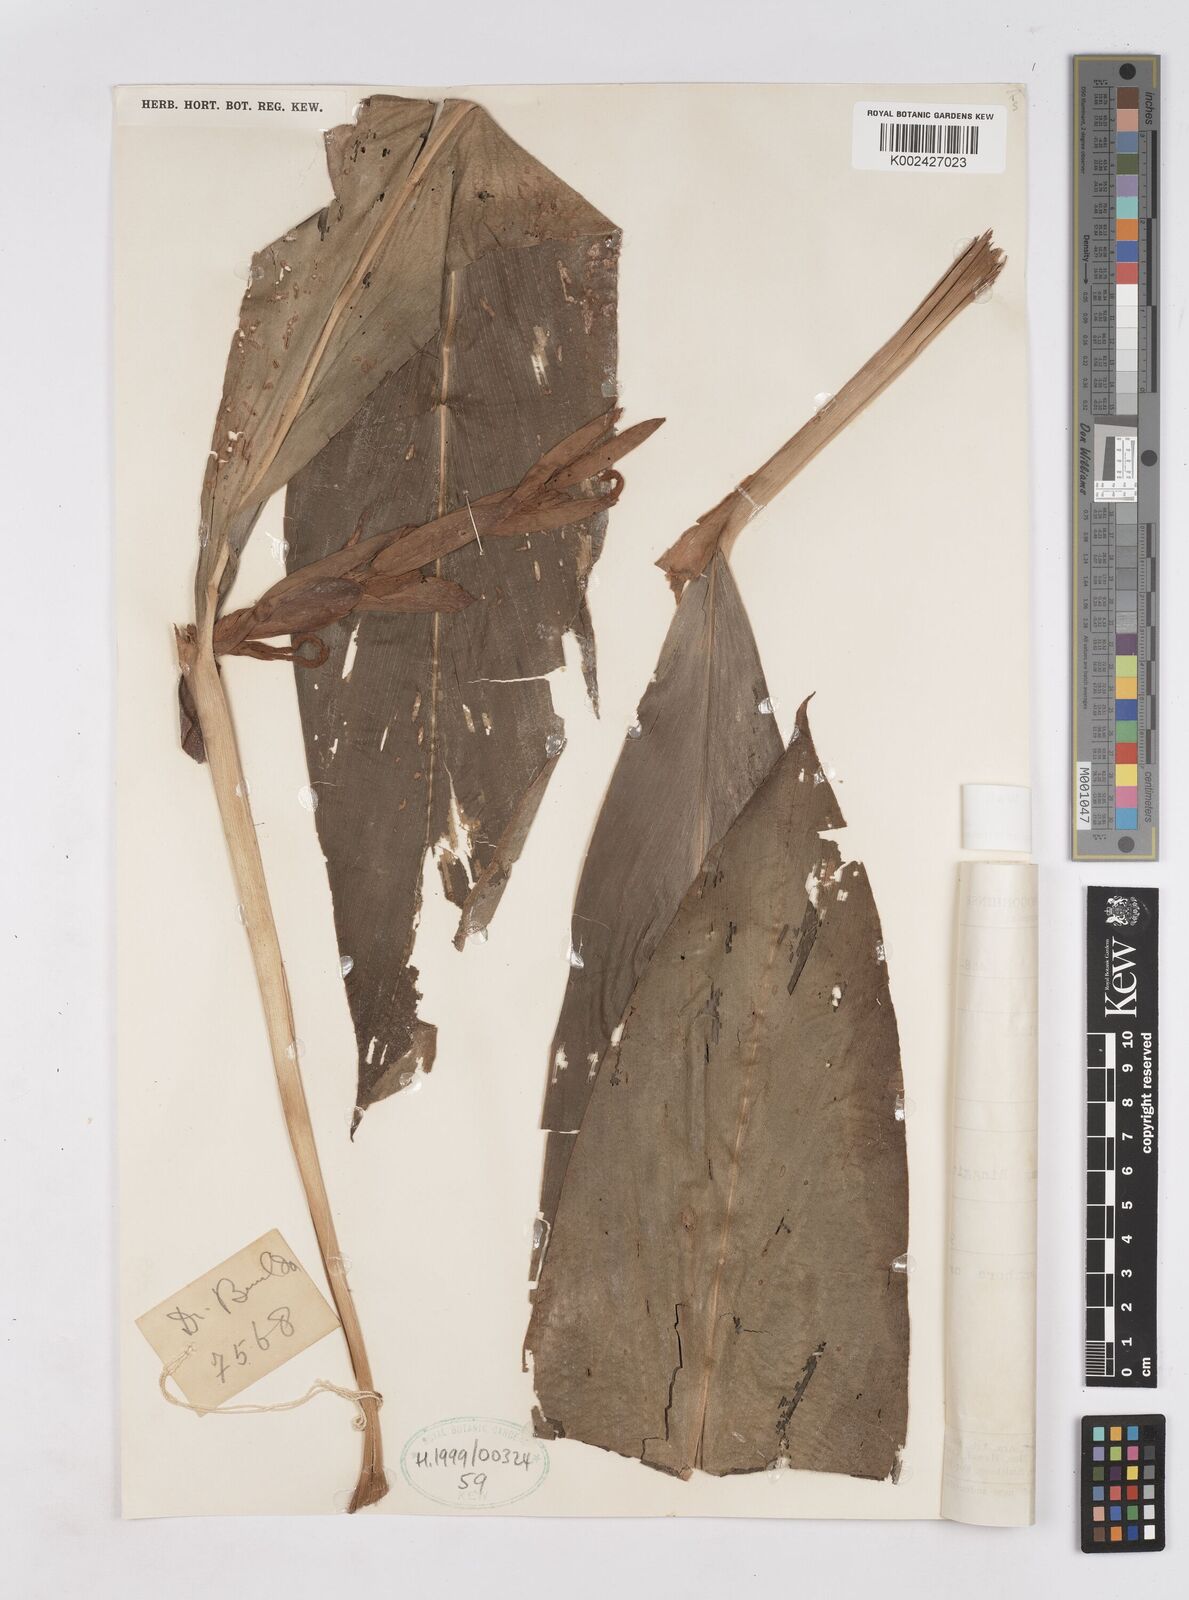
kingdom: Plantae
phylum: Tracheophyta
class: Liliopsida
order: Zingiberales
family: Zingiberaceae
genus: Hedychium
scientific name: Hedychium horsfieldii
